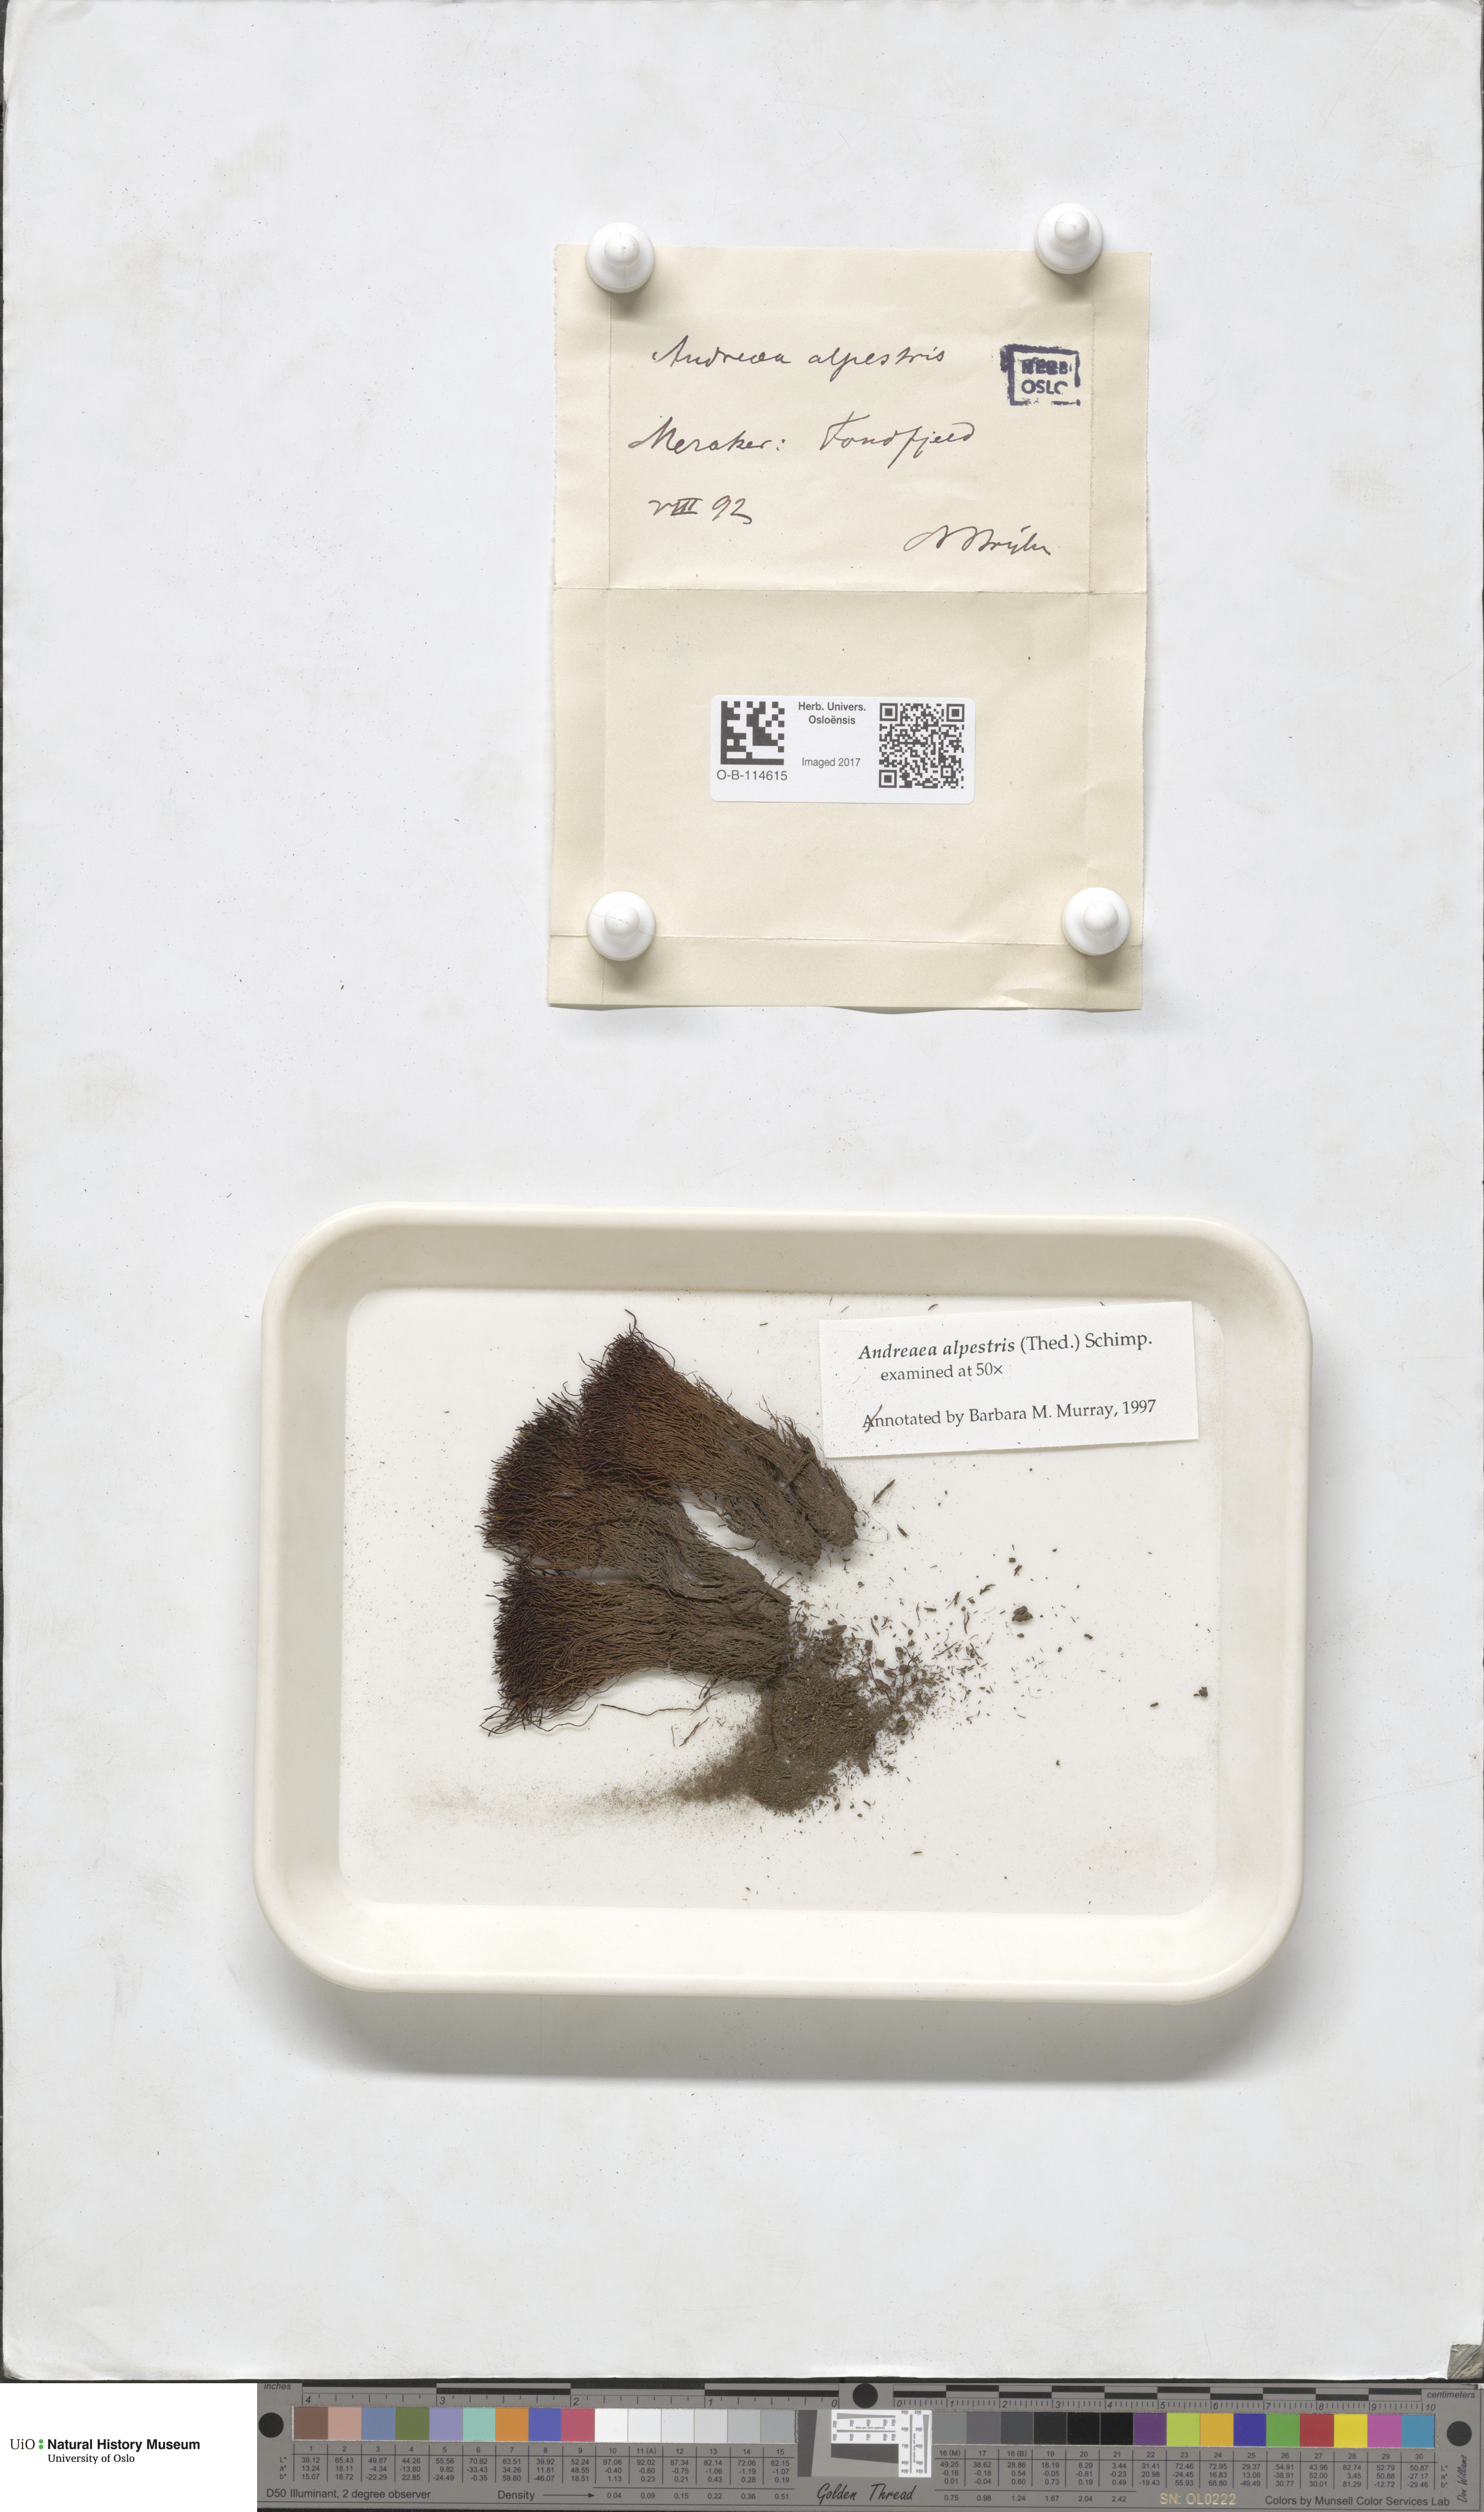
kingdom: Plantae
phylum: Bryophyta
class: Andreaeopsida
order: Andreaeales
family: Andreaeaceae
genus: Andreaea
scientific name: Andreaea alpestris
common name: Slender rock-moss
